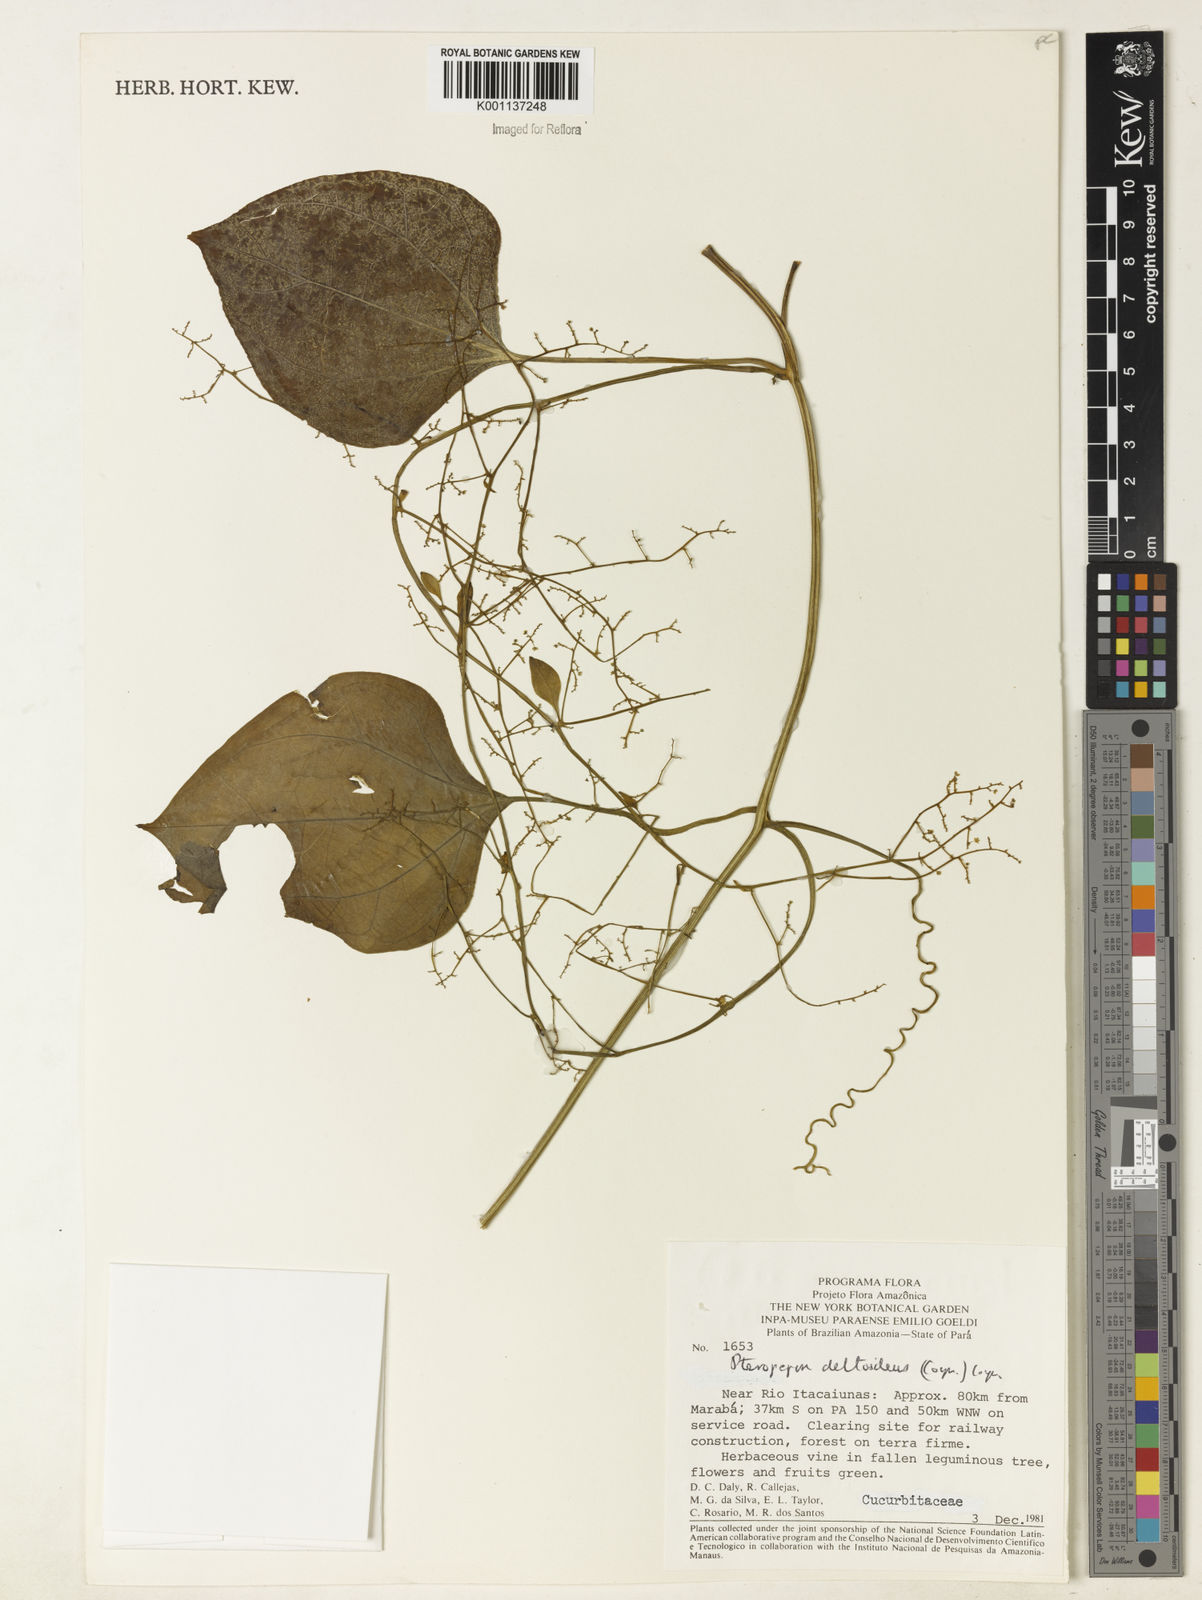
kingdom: Plantae
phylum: Tracheophyta
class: Magnoliopsida
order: Cucurbitales
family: Cucurbitaceae
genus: Pteropepon
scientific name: Pteropepon deltoideus
